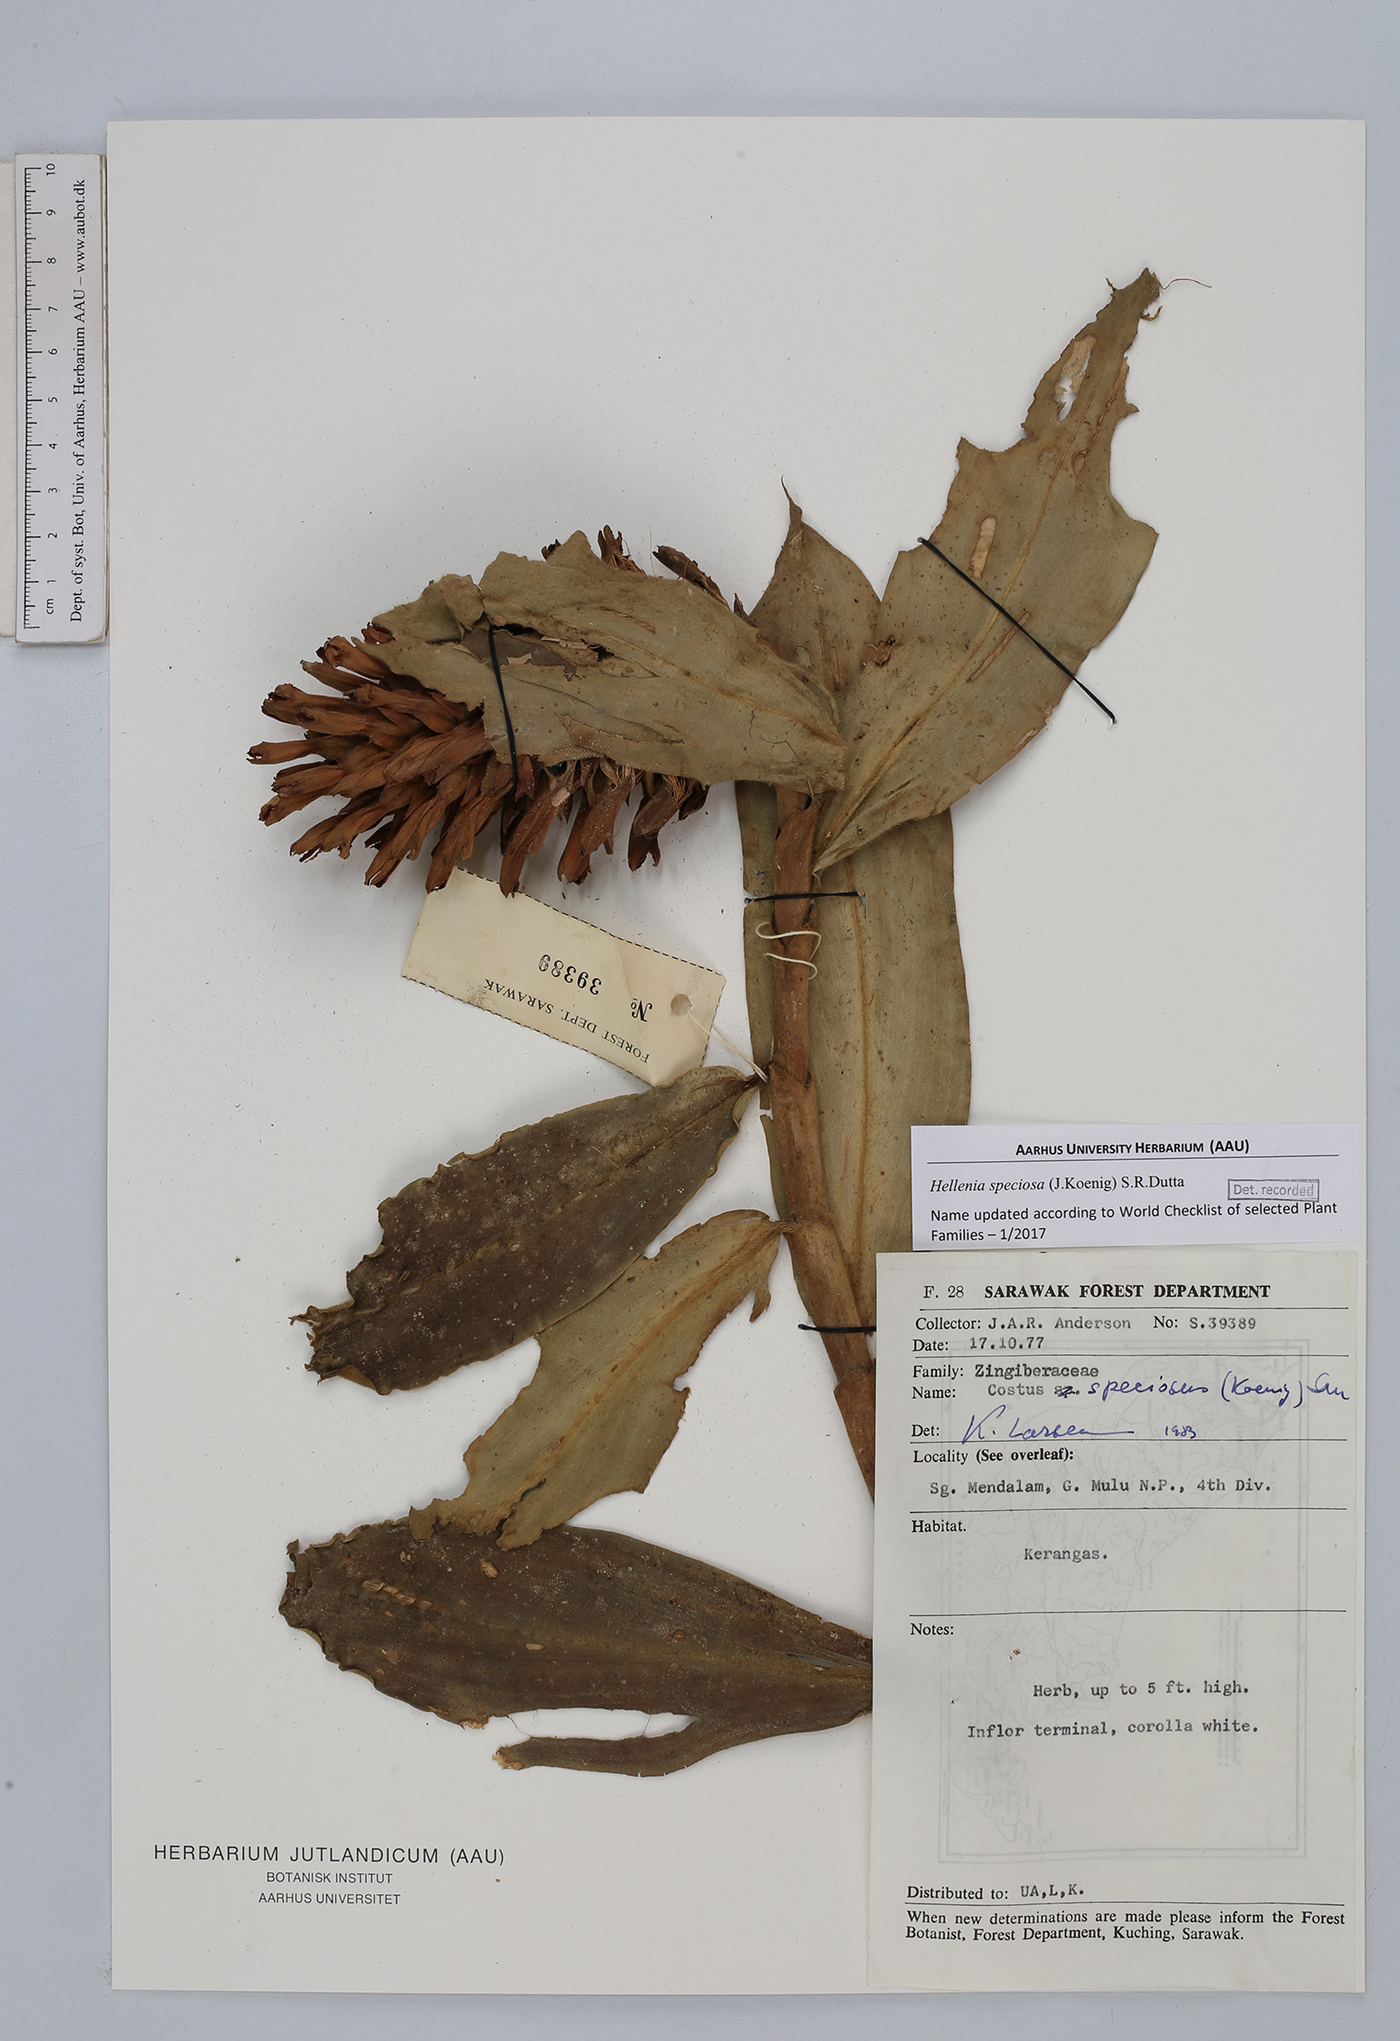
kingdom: Plantae
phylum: Tracheophyta
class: Liliopsida
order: Zingiberales
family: Costaceae
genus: Hellenia
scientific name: Hellenia speciosa
